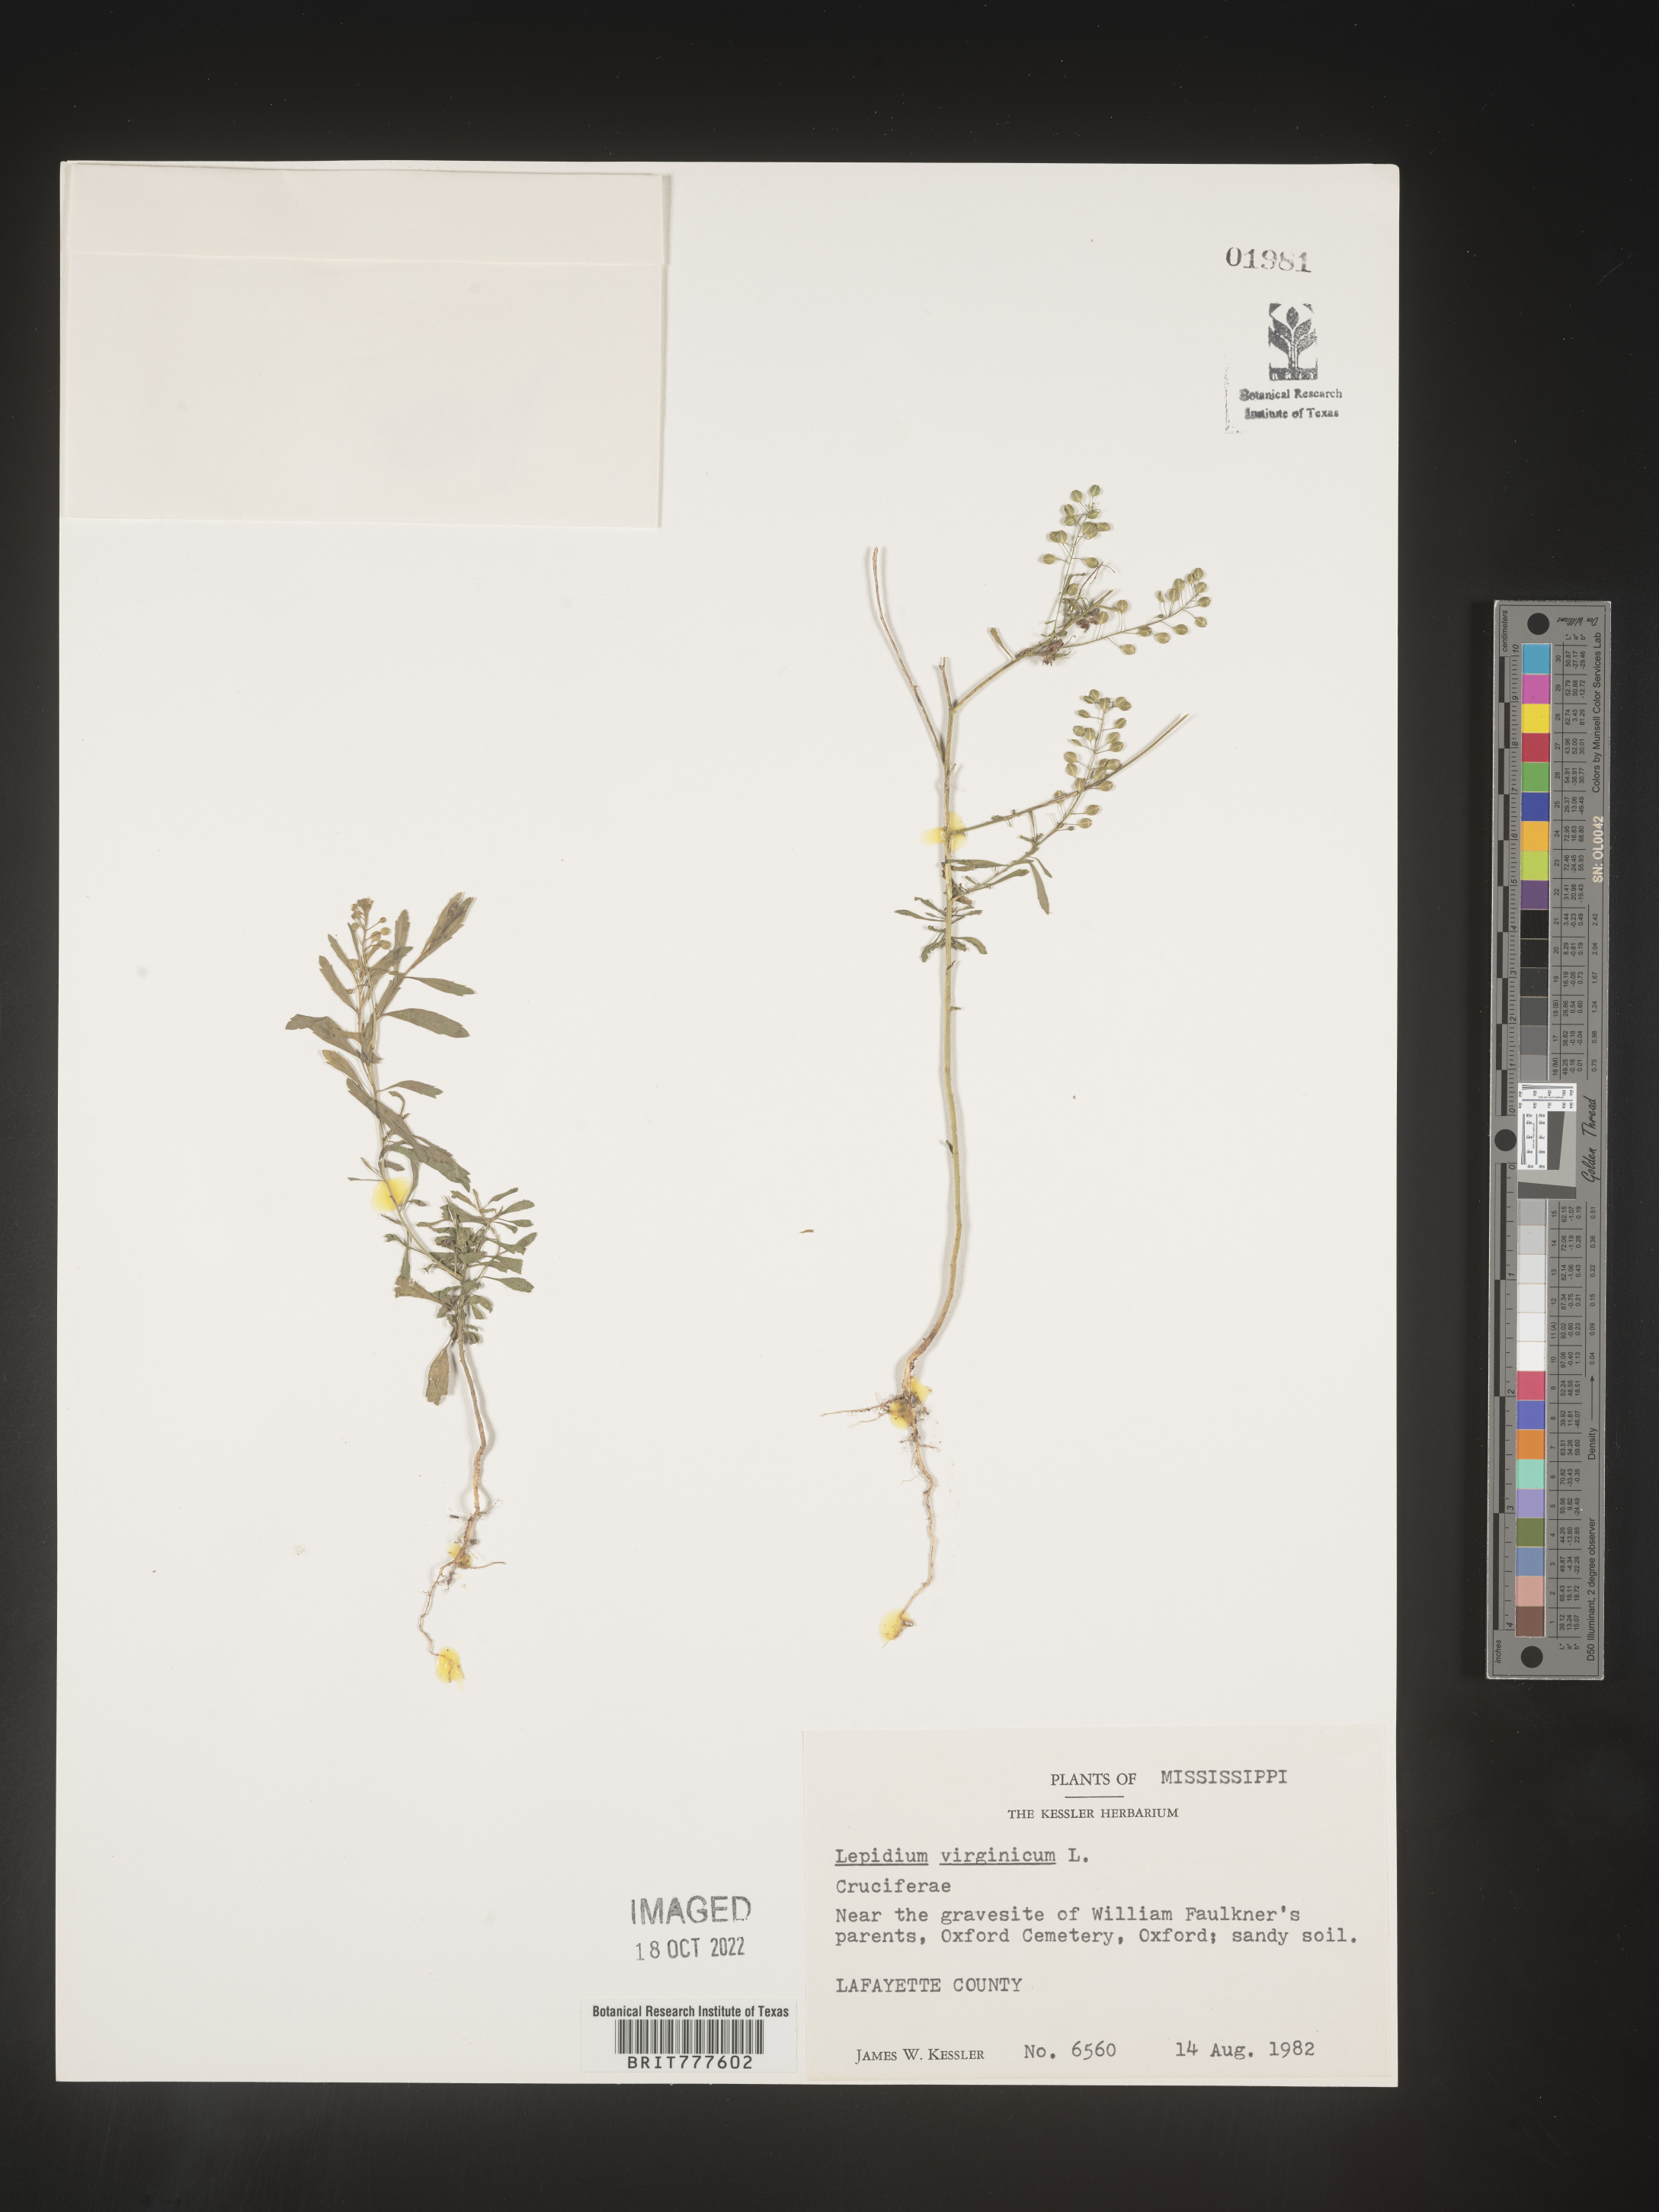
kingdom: Plantae
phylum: Tracheophyta
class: Magnoliopsida
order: Brassicales
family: Brassicaceae
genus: Lepidium
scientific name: Lepidium virginicum
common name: Least pepperwort
